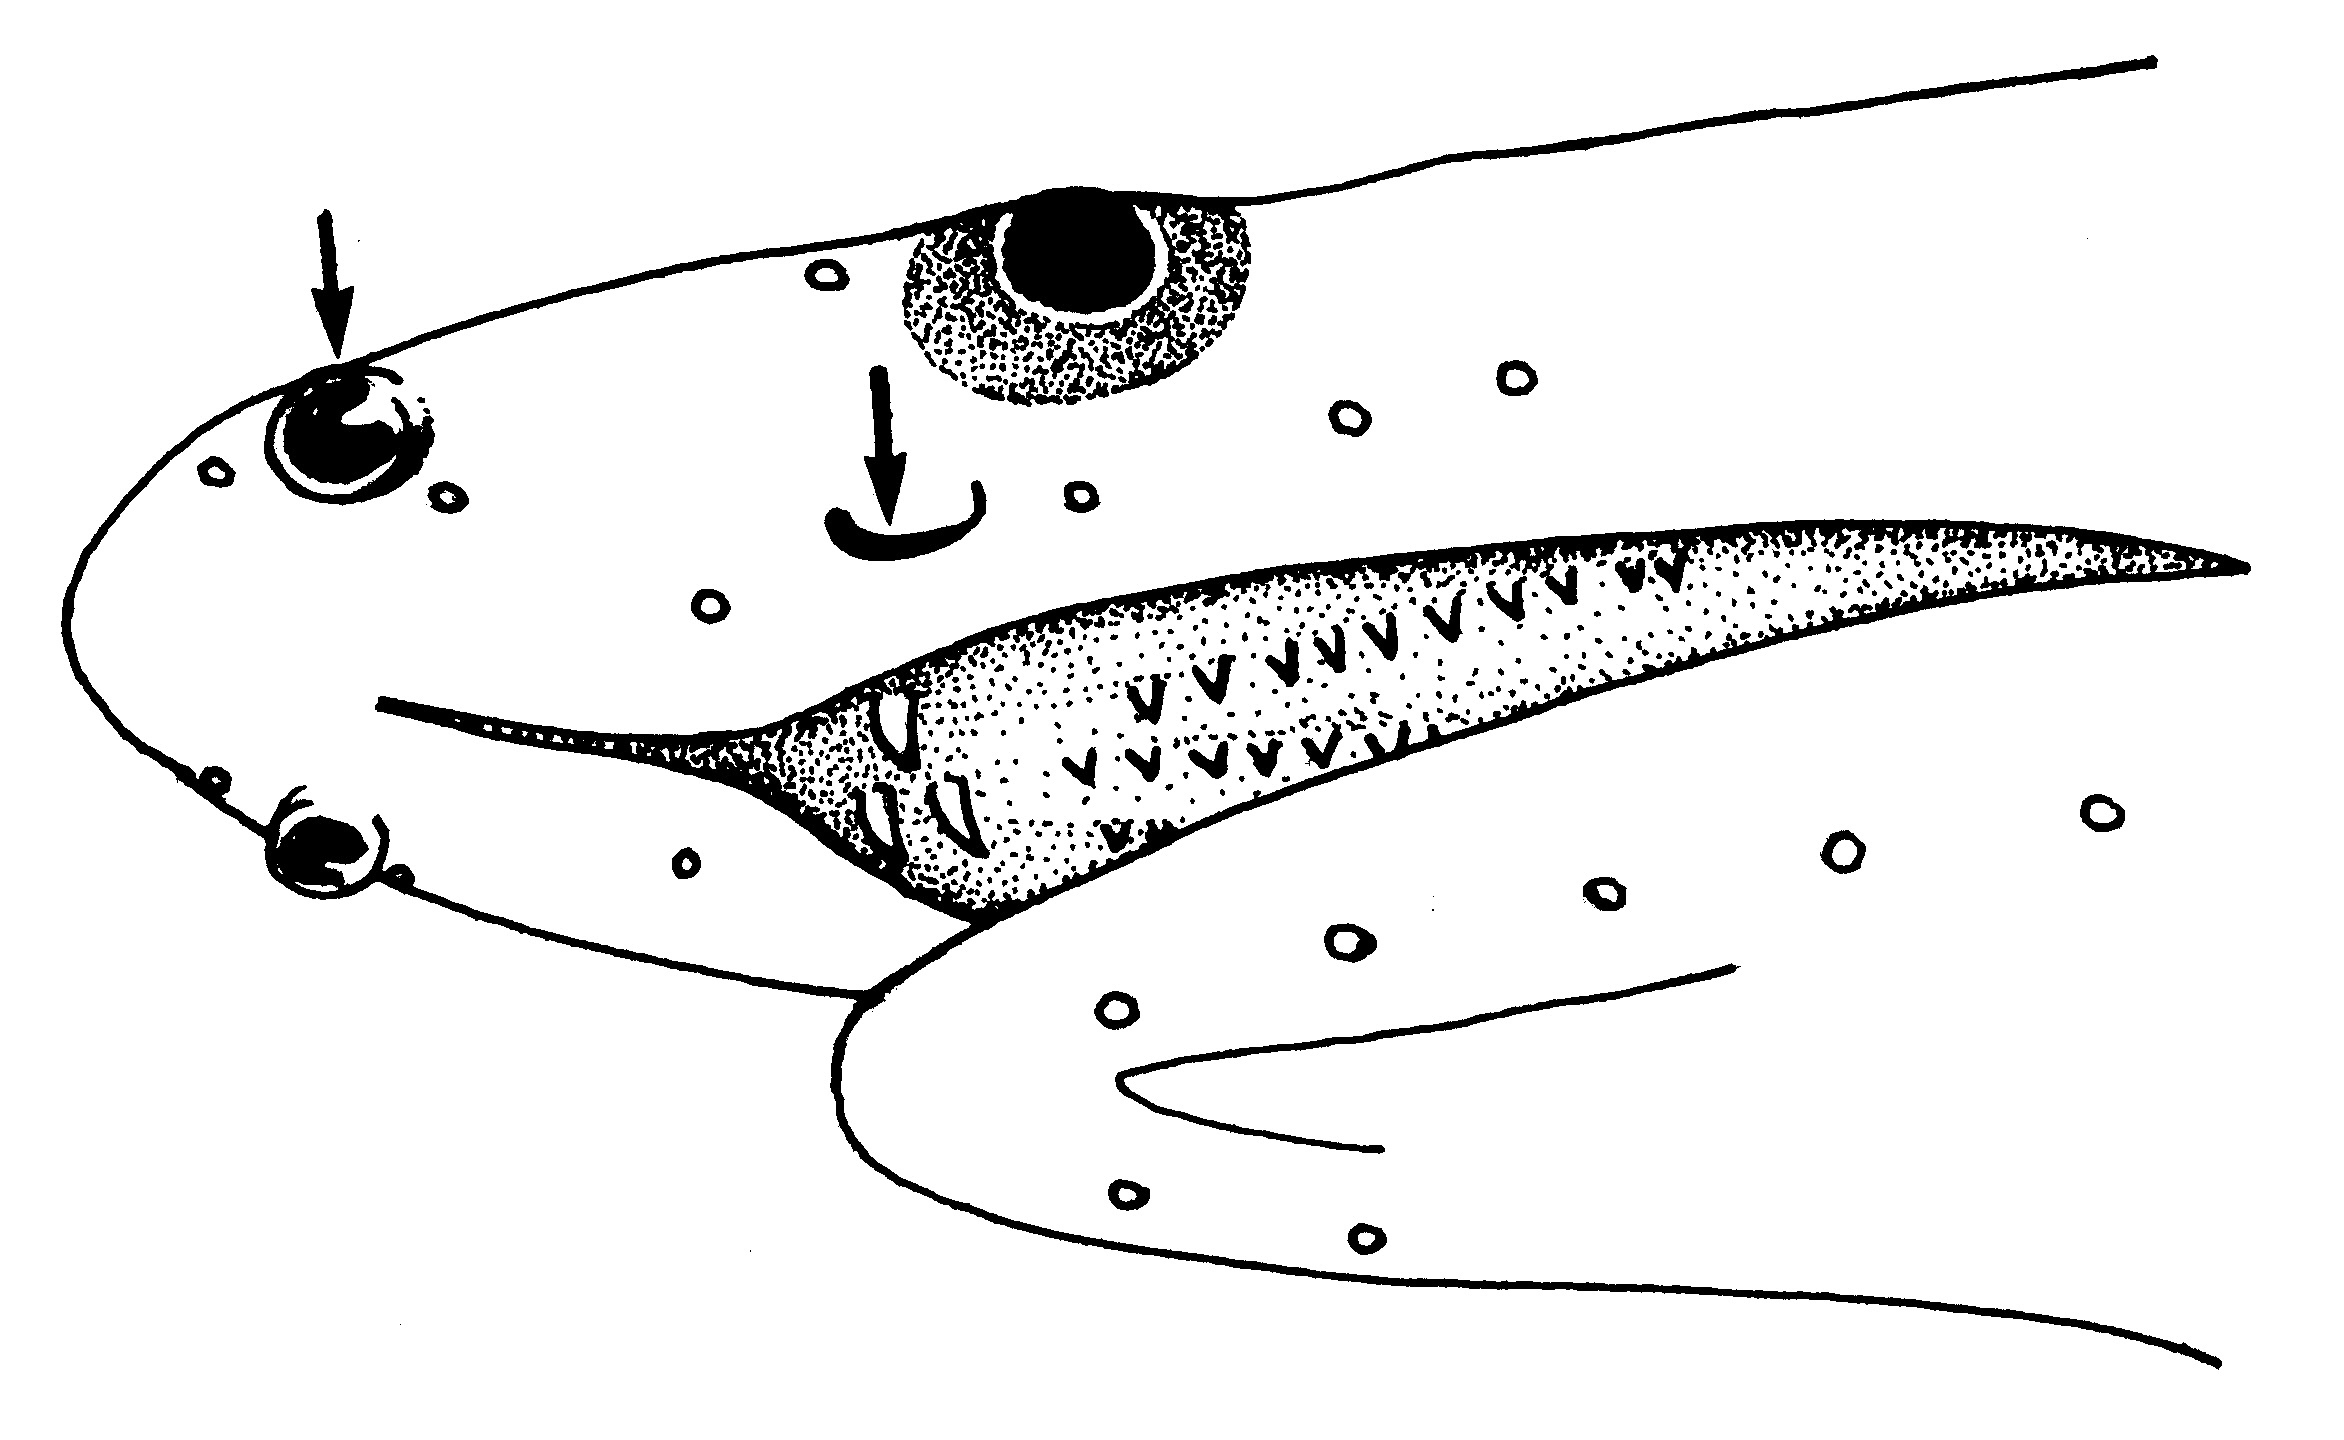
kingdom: Animalia
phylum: Chordata
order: Anguilliformes
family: Ophichthidae
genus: Apterichtus
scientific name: Apterichtus
